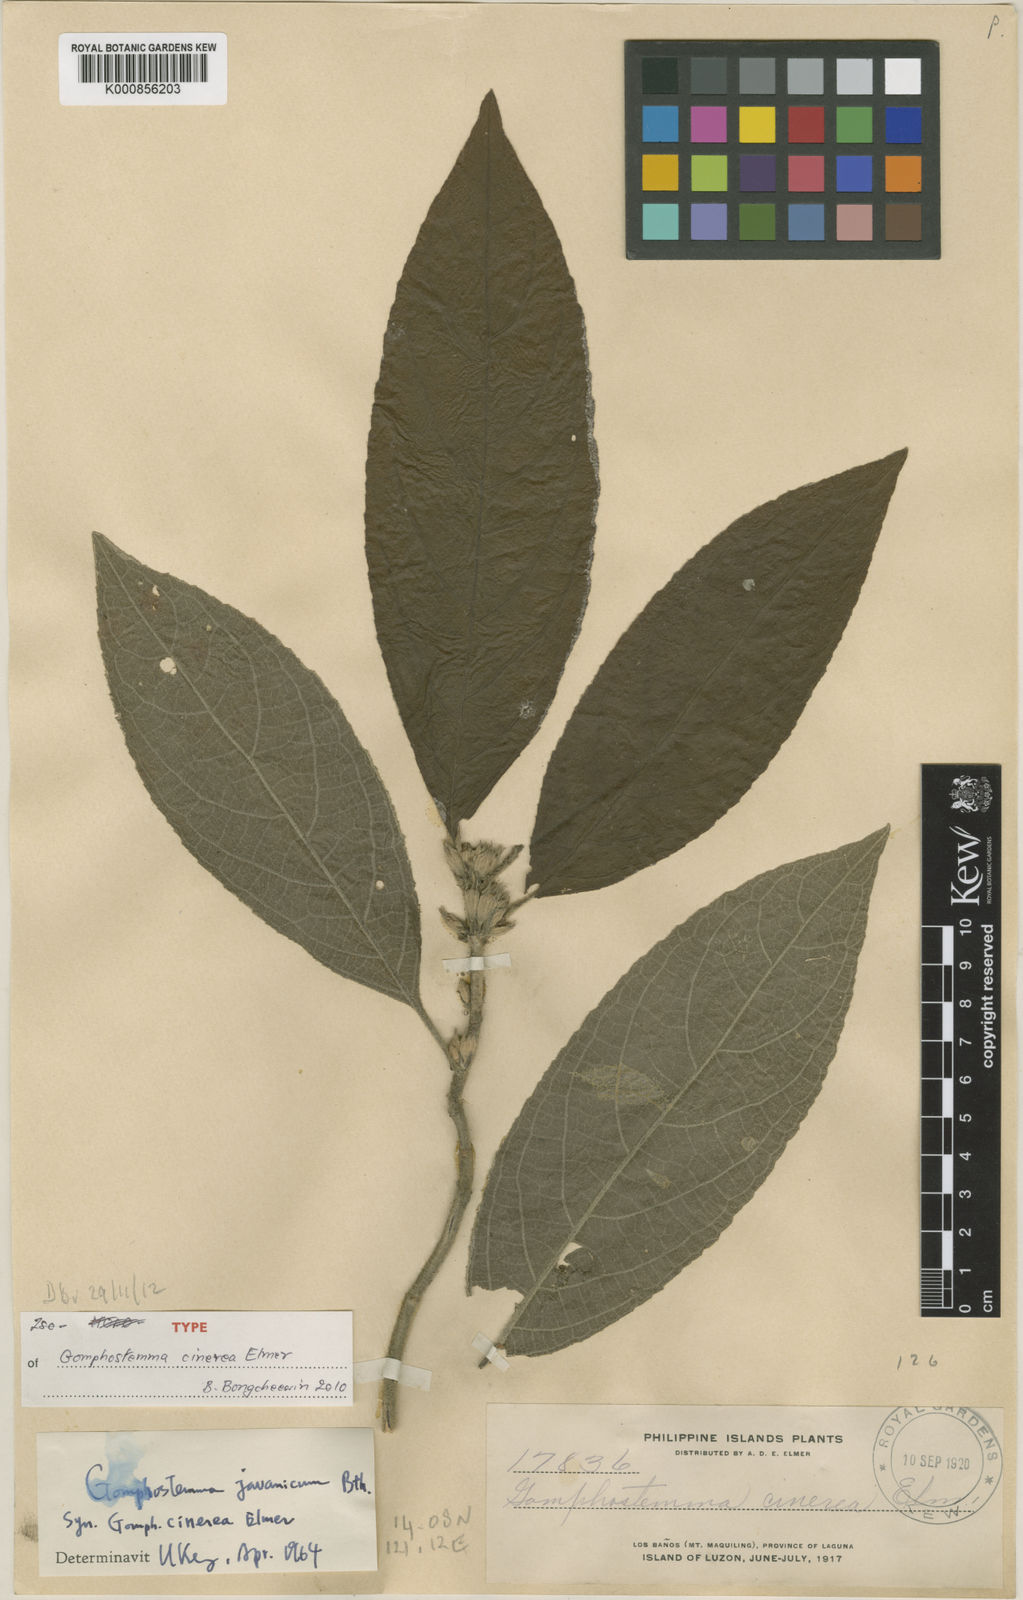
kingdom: Plantae
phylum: Tracheophyta
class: Magnoliopsida
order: Lamiales
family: Lamiaceae
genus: Gomphostemma
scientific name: Gomphostemma javanicum
